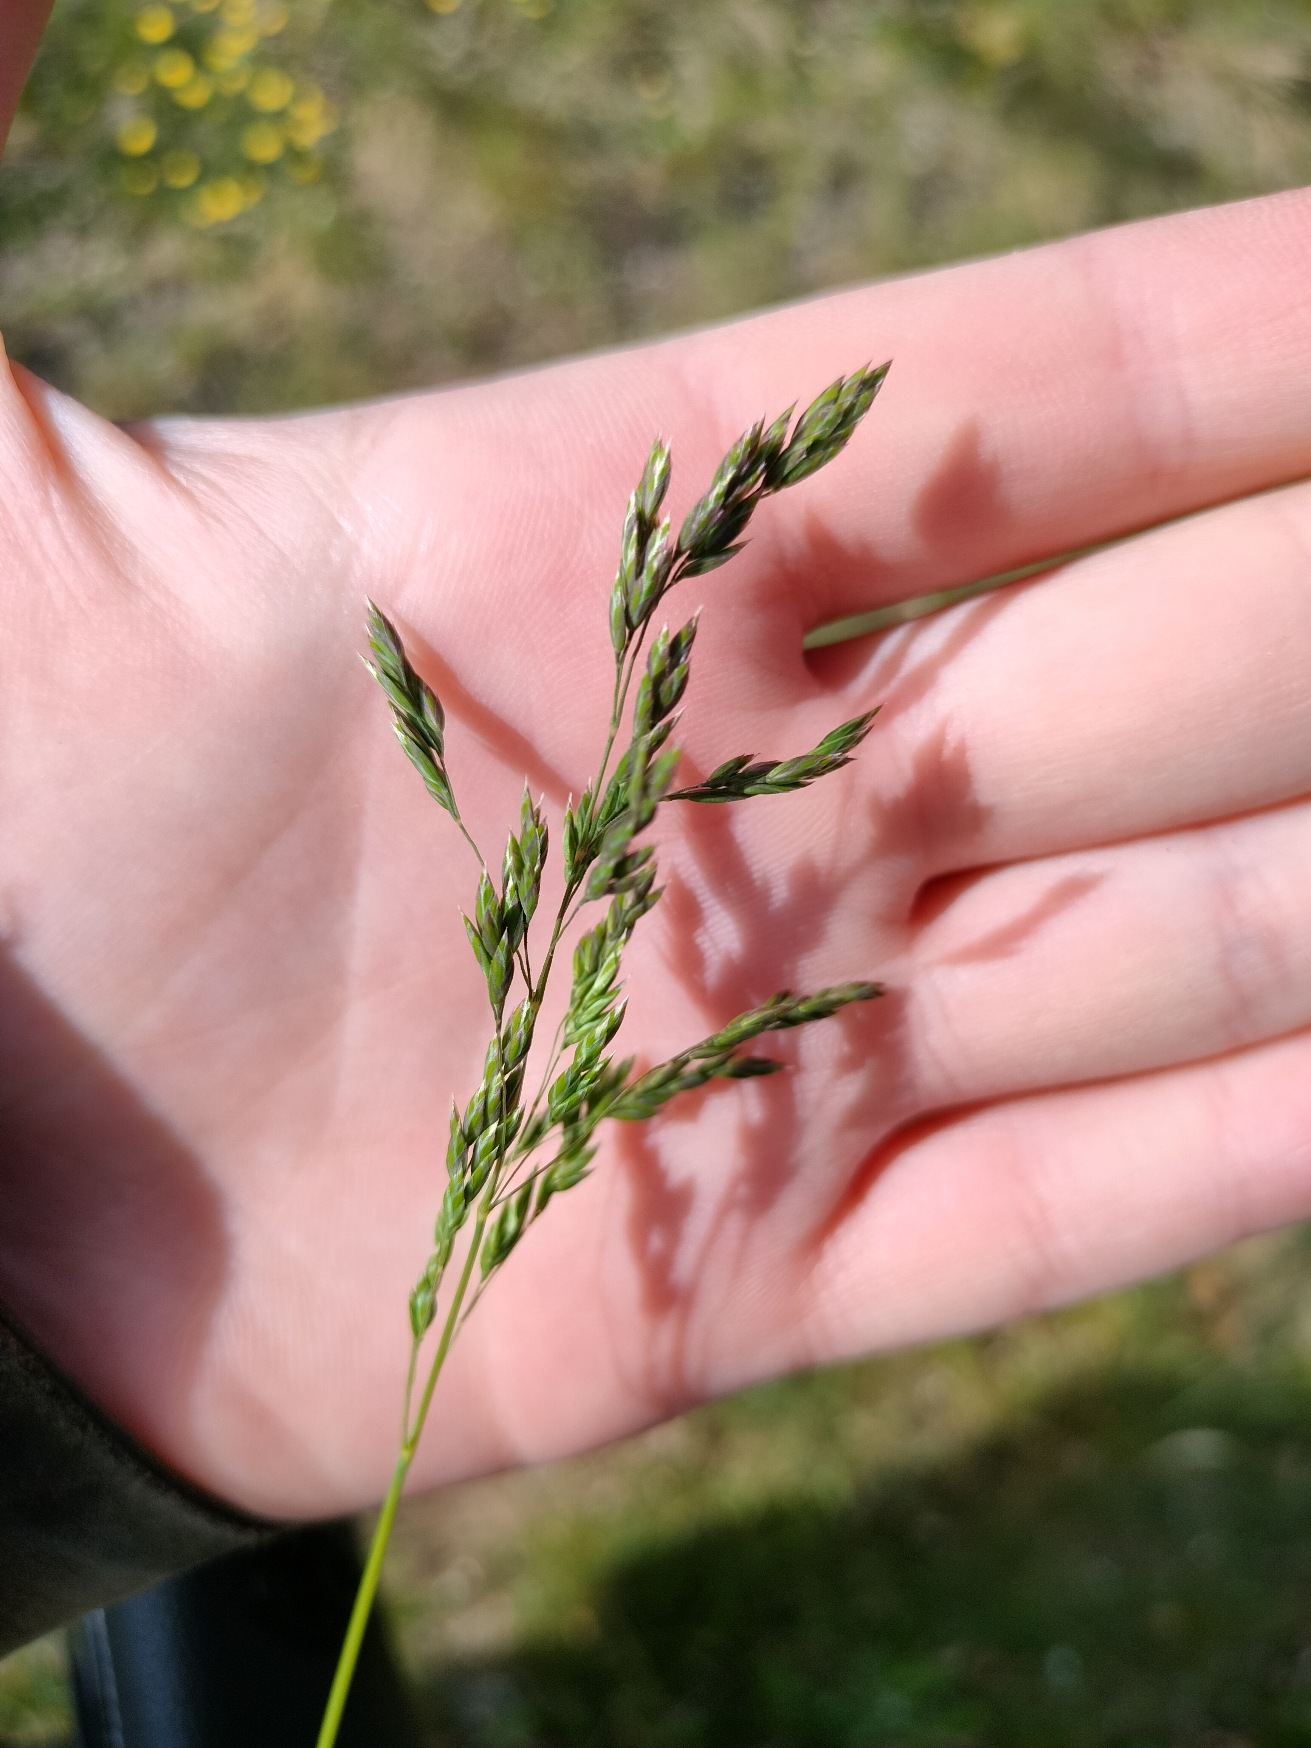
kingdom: Plantae
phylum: Tracheophyta
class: Liliopsida
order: Poales
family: Poaceae
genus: Poa
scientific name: Poa compressa
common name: Fladstrået rapgræs
